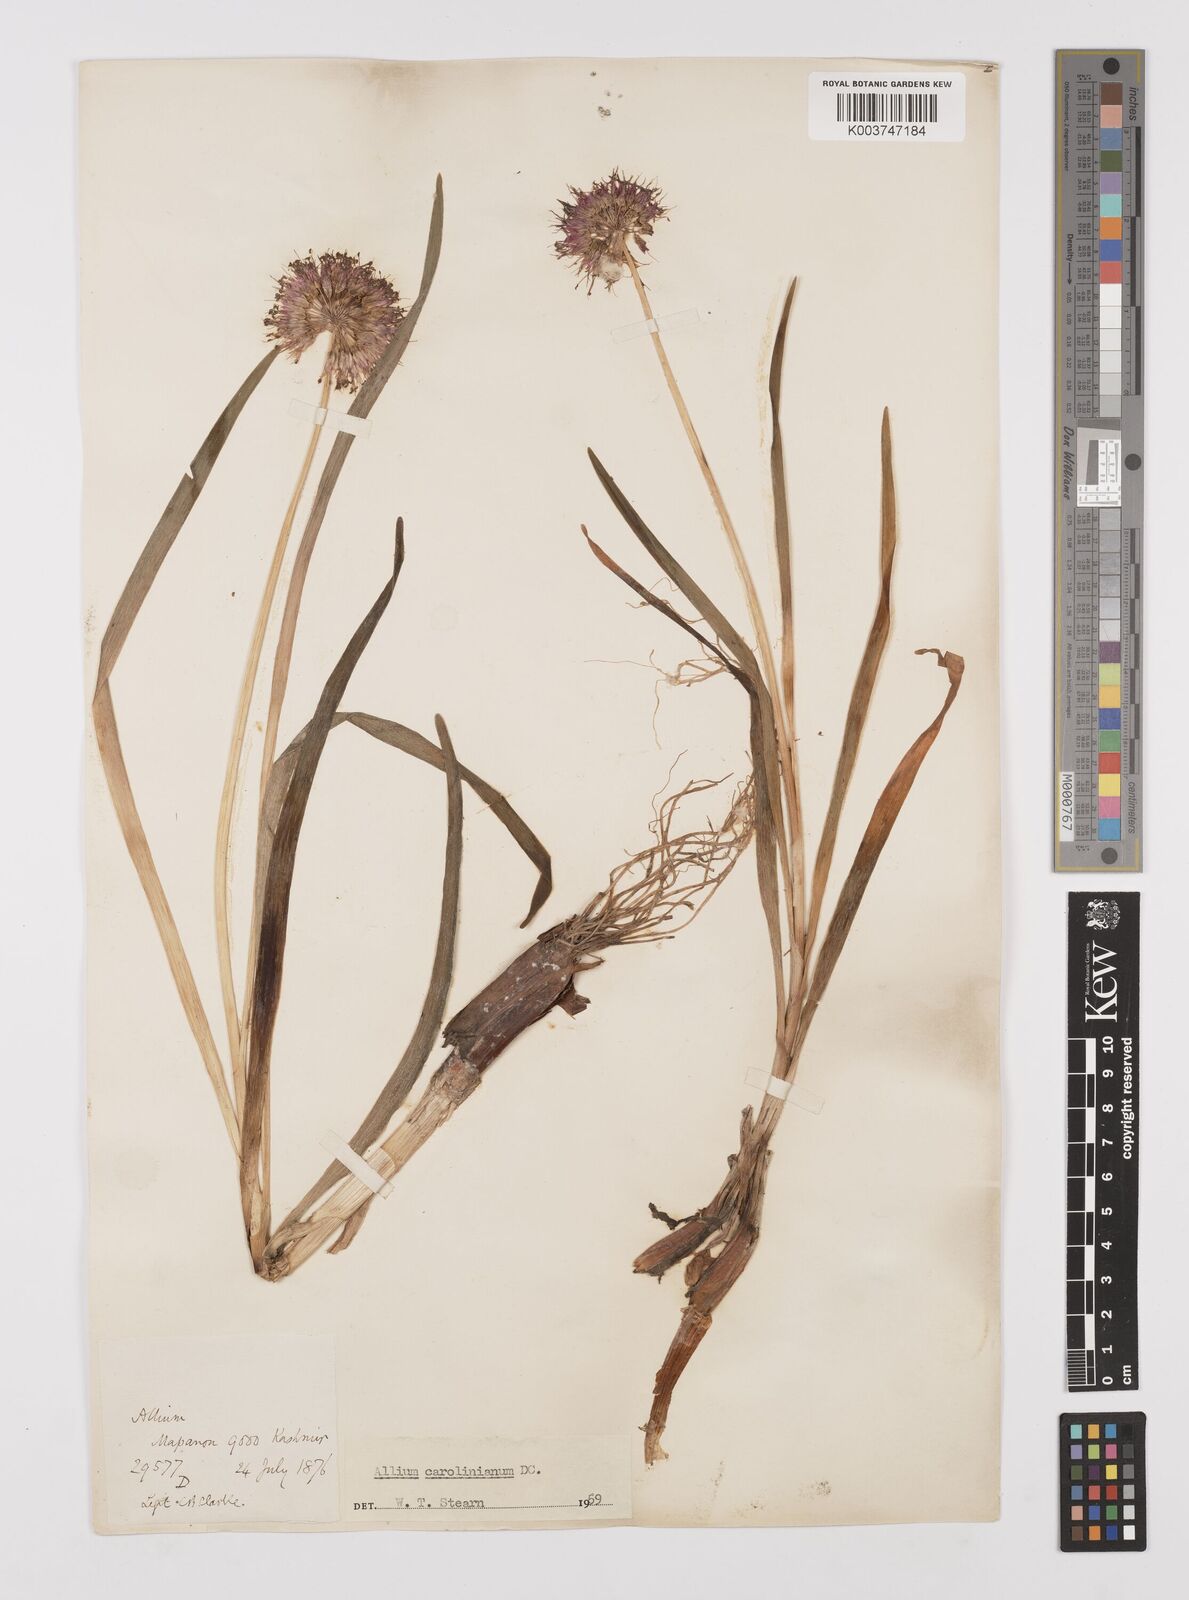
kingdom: Plantae
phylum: Tracheophyta
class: Liliopsida
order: Asparagales
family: Amaryllidaceae
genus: Allium
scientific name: Allium carolinianum
